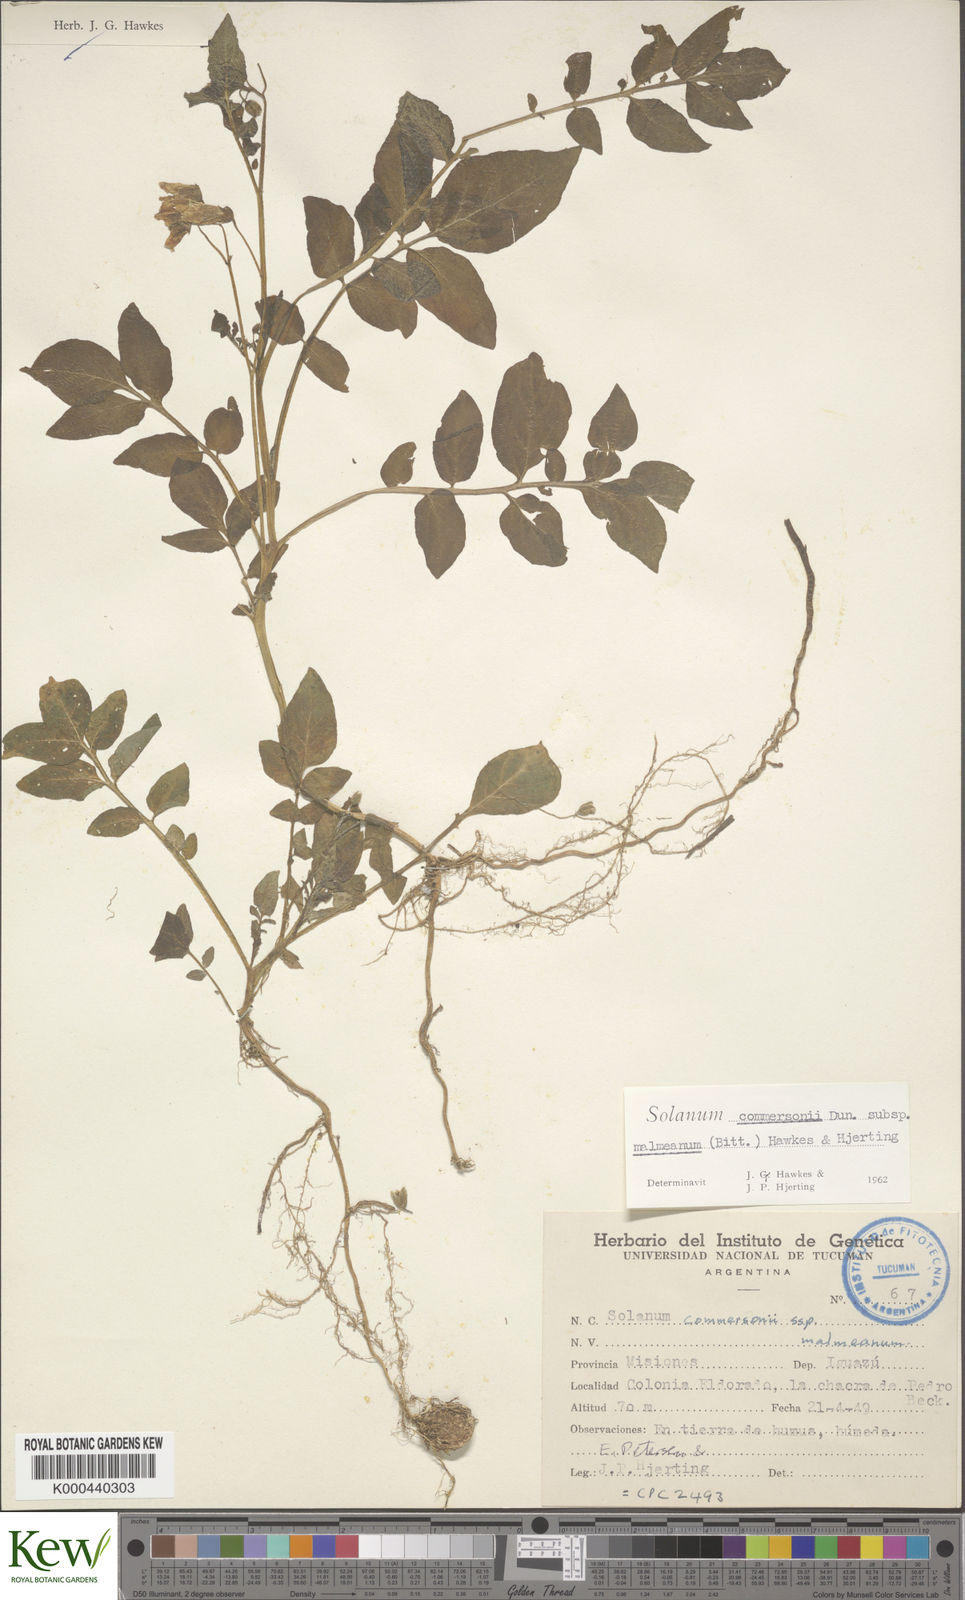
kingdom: Plantae
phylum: Tracheophyta
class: Magnoliopsida
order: Solanales
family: Solanaceae
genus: Solanum
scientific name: Solanum malmeanum
